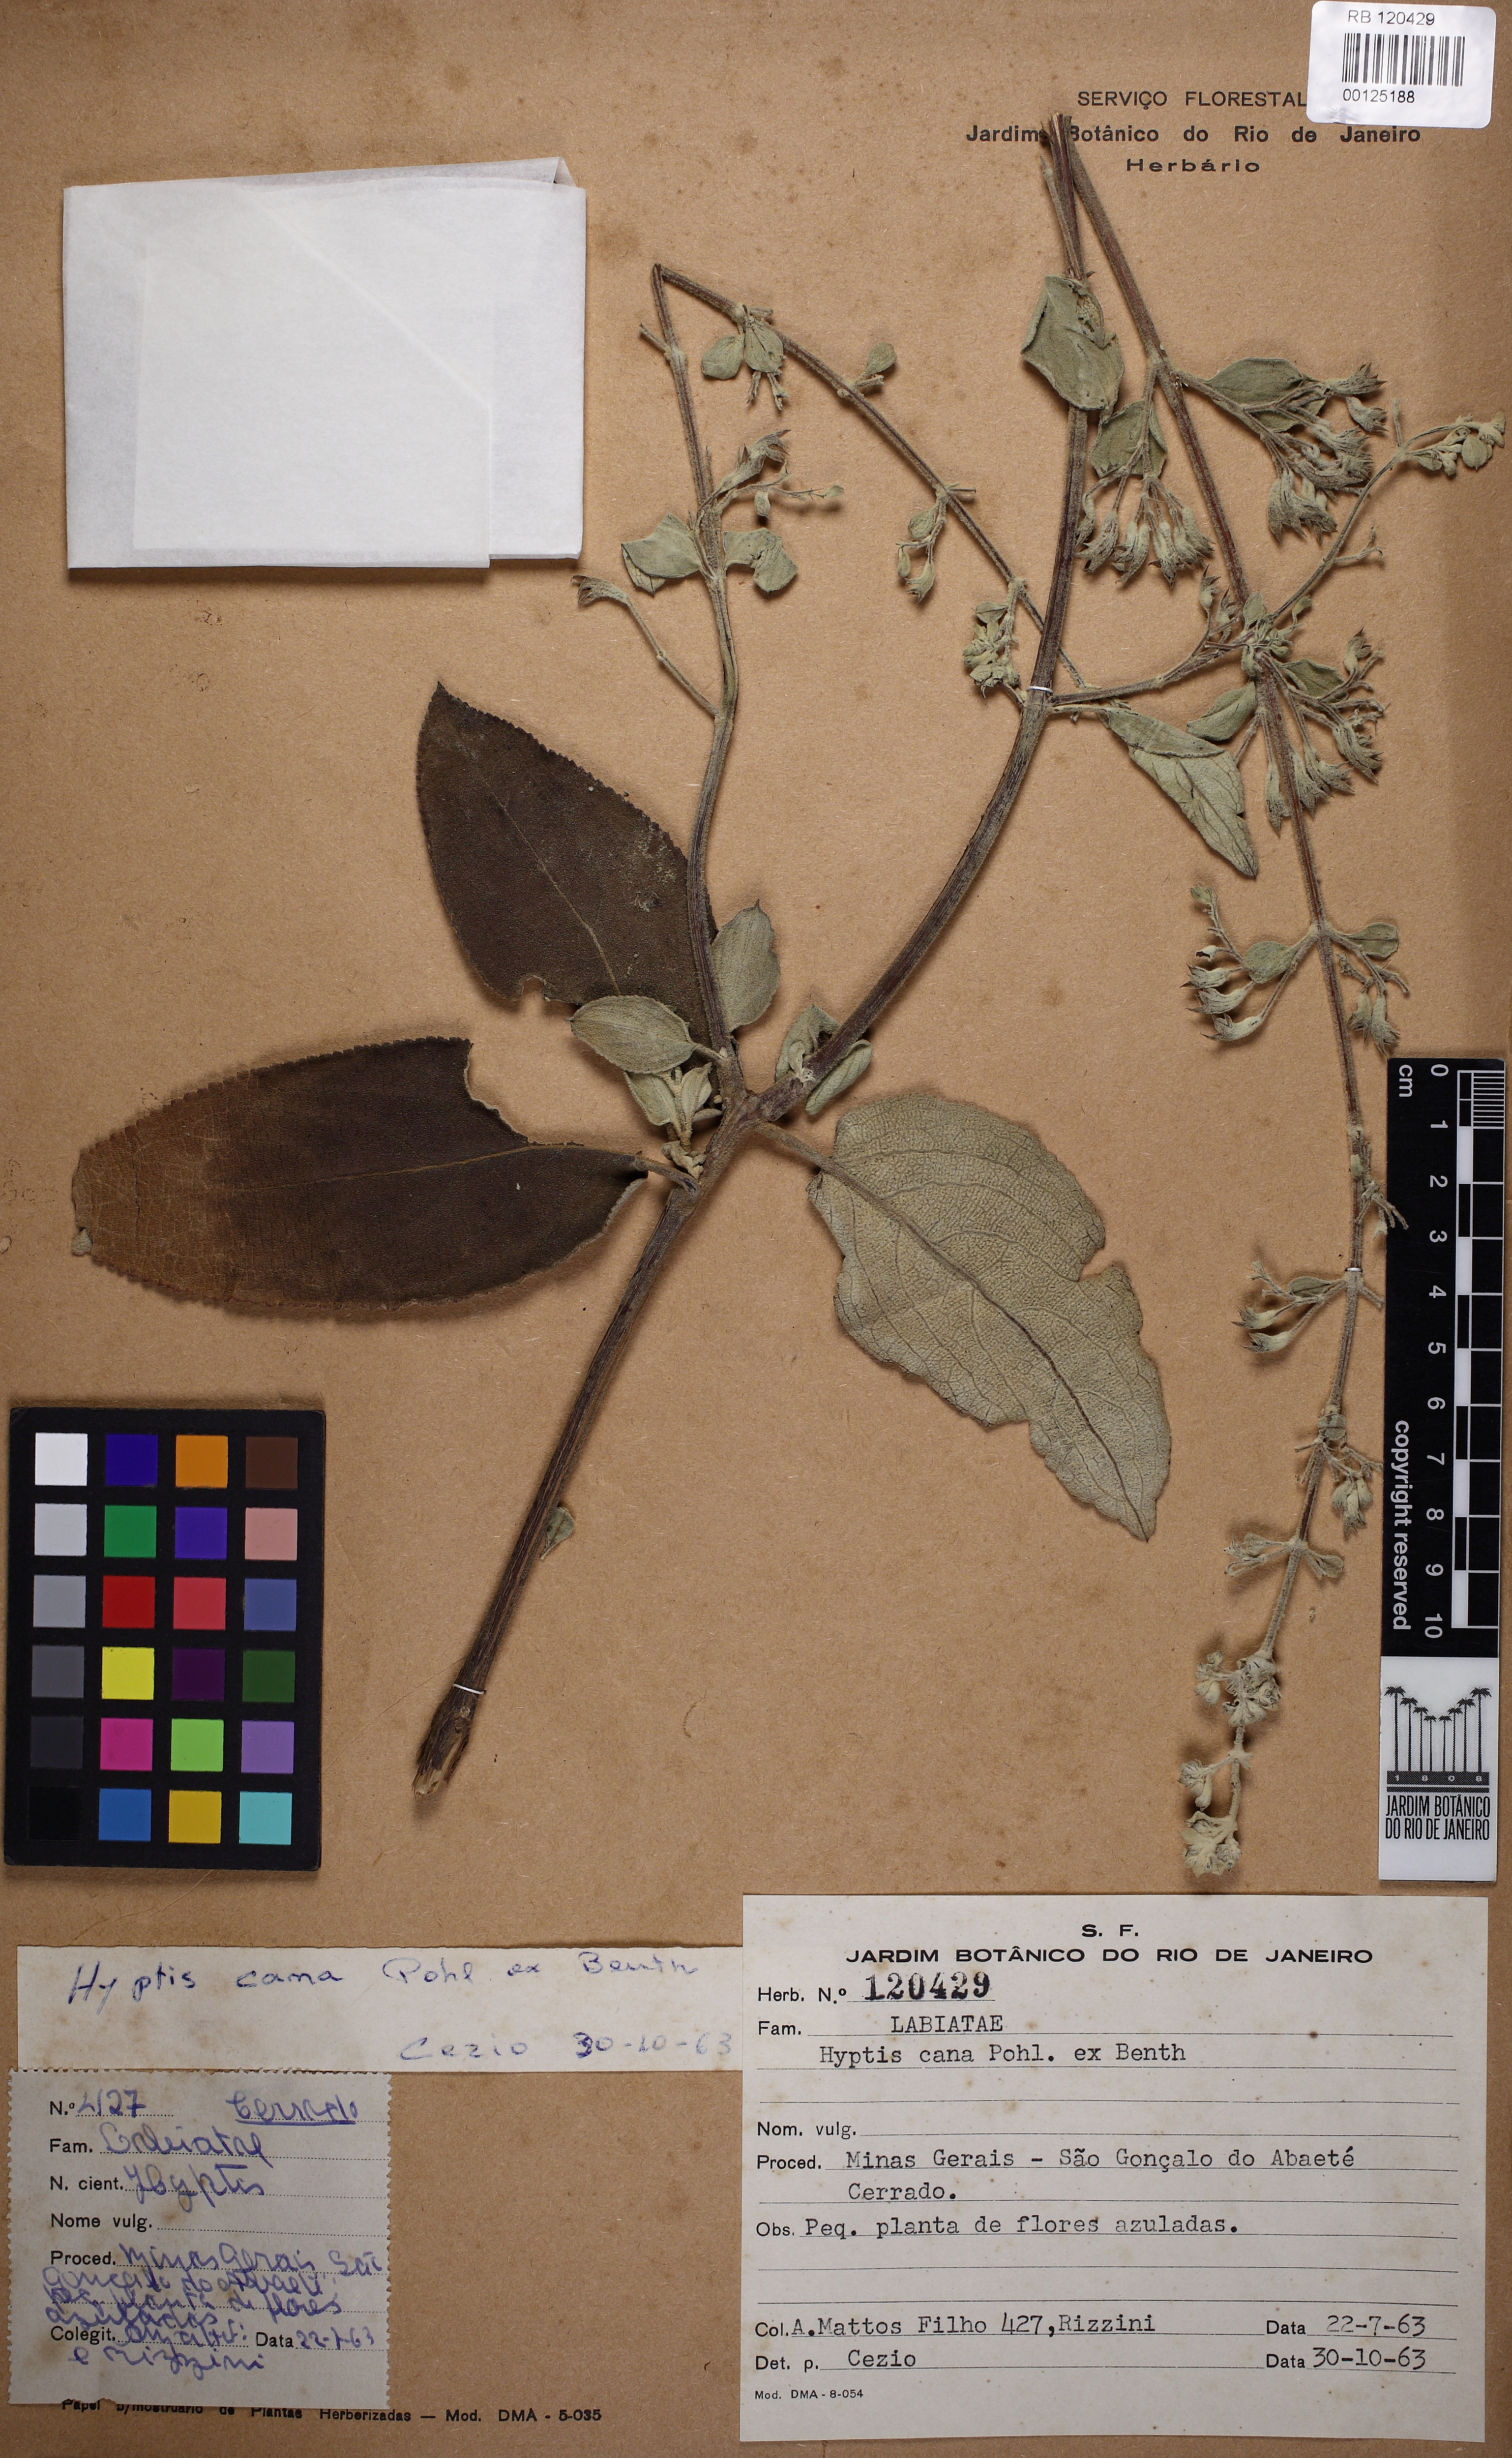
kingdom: Plantae
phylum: Tracheophyta
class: Magnoliopsida
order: Lamiales
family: Lamiaceae
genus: Hyptidendron
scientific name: Hyptidendron canum
